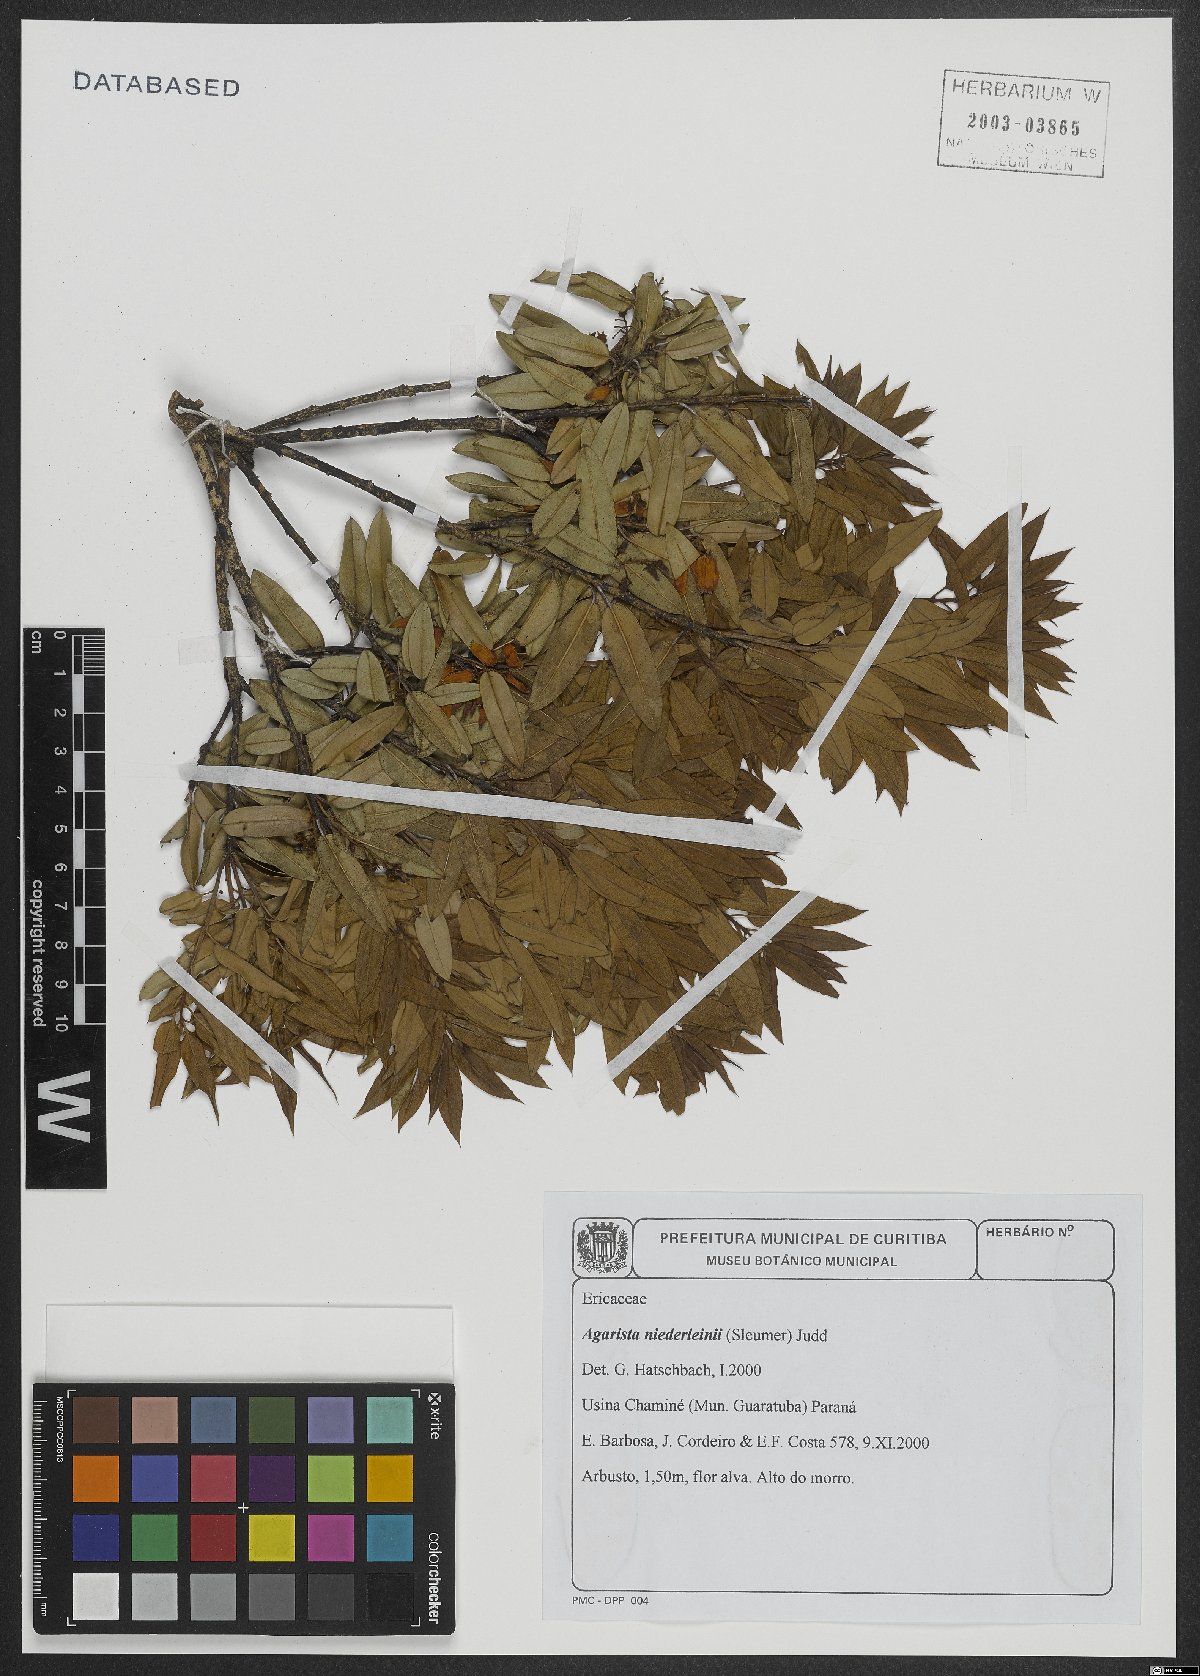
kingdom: Plantae
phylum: Tracheophyta
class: Magnoliopsida
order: Ericales
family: Ericaceae
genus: Agarista
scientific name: Agarista niederleinii
